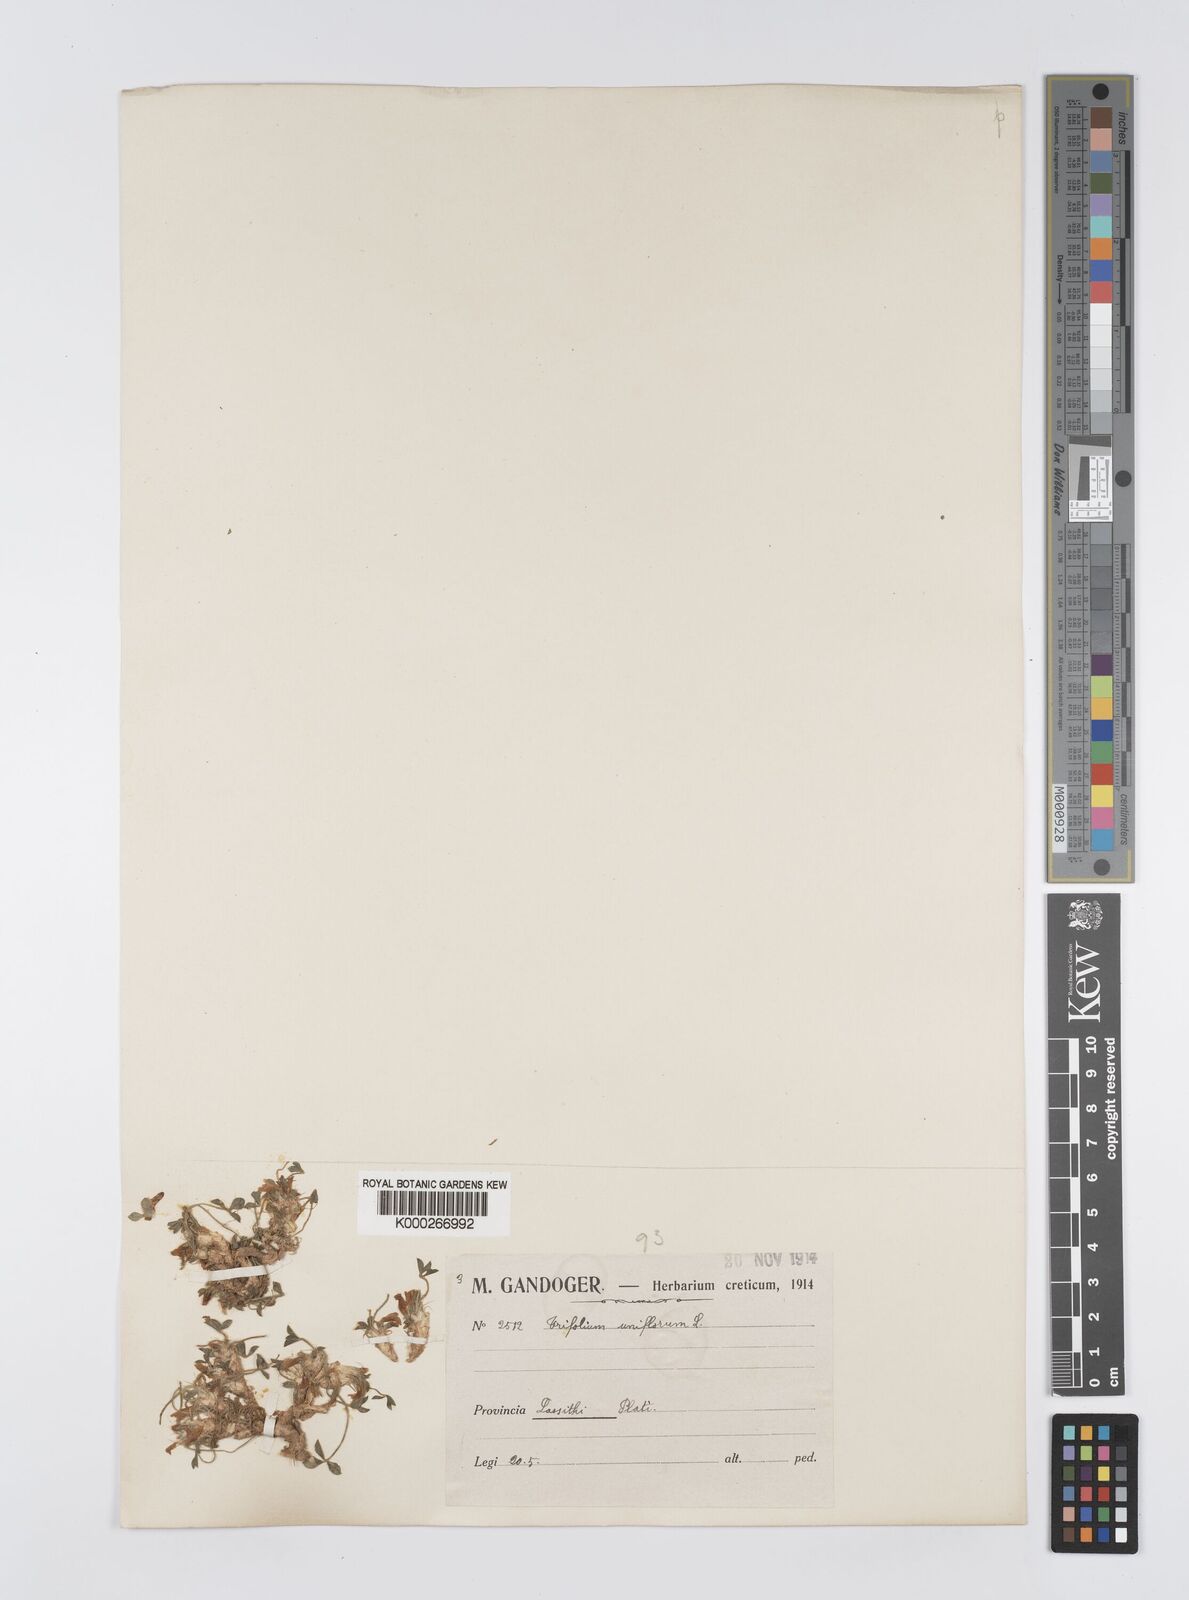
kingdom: Plantae
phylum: Tracheophyta
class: Magnoliopsida
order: Fabales
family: Fabaceae
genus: Trifolium
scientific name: Trifolium uniflorum
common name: One-flower clover
